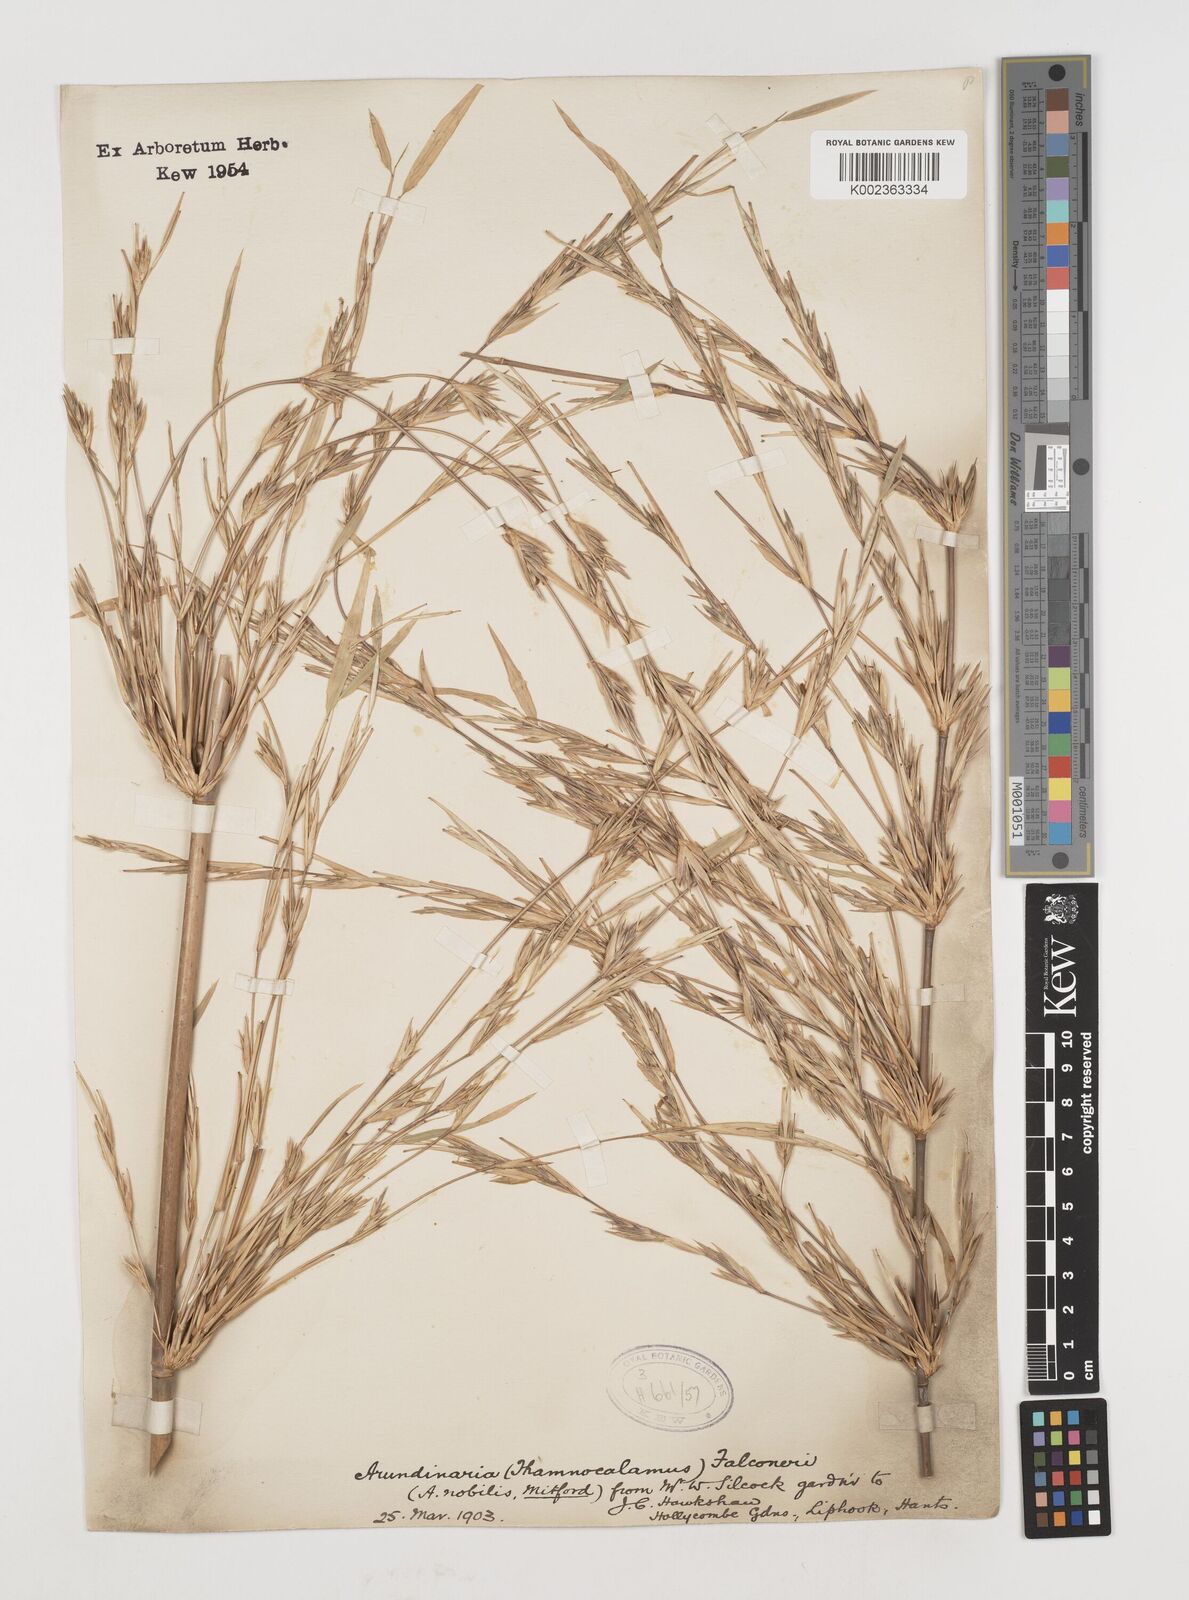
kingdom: Plantae
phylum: Tracheophyta
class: Liliopsida
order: Poales
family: Poaceae
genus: Himalayacalamus
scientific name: Himalayacalamus falconeri
